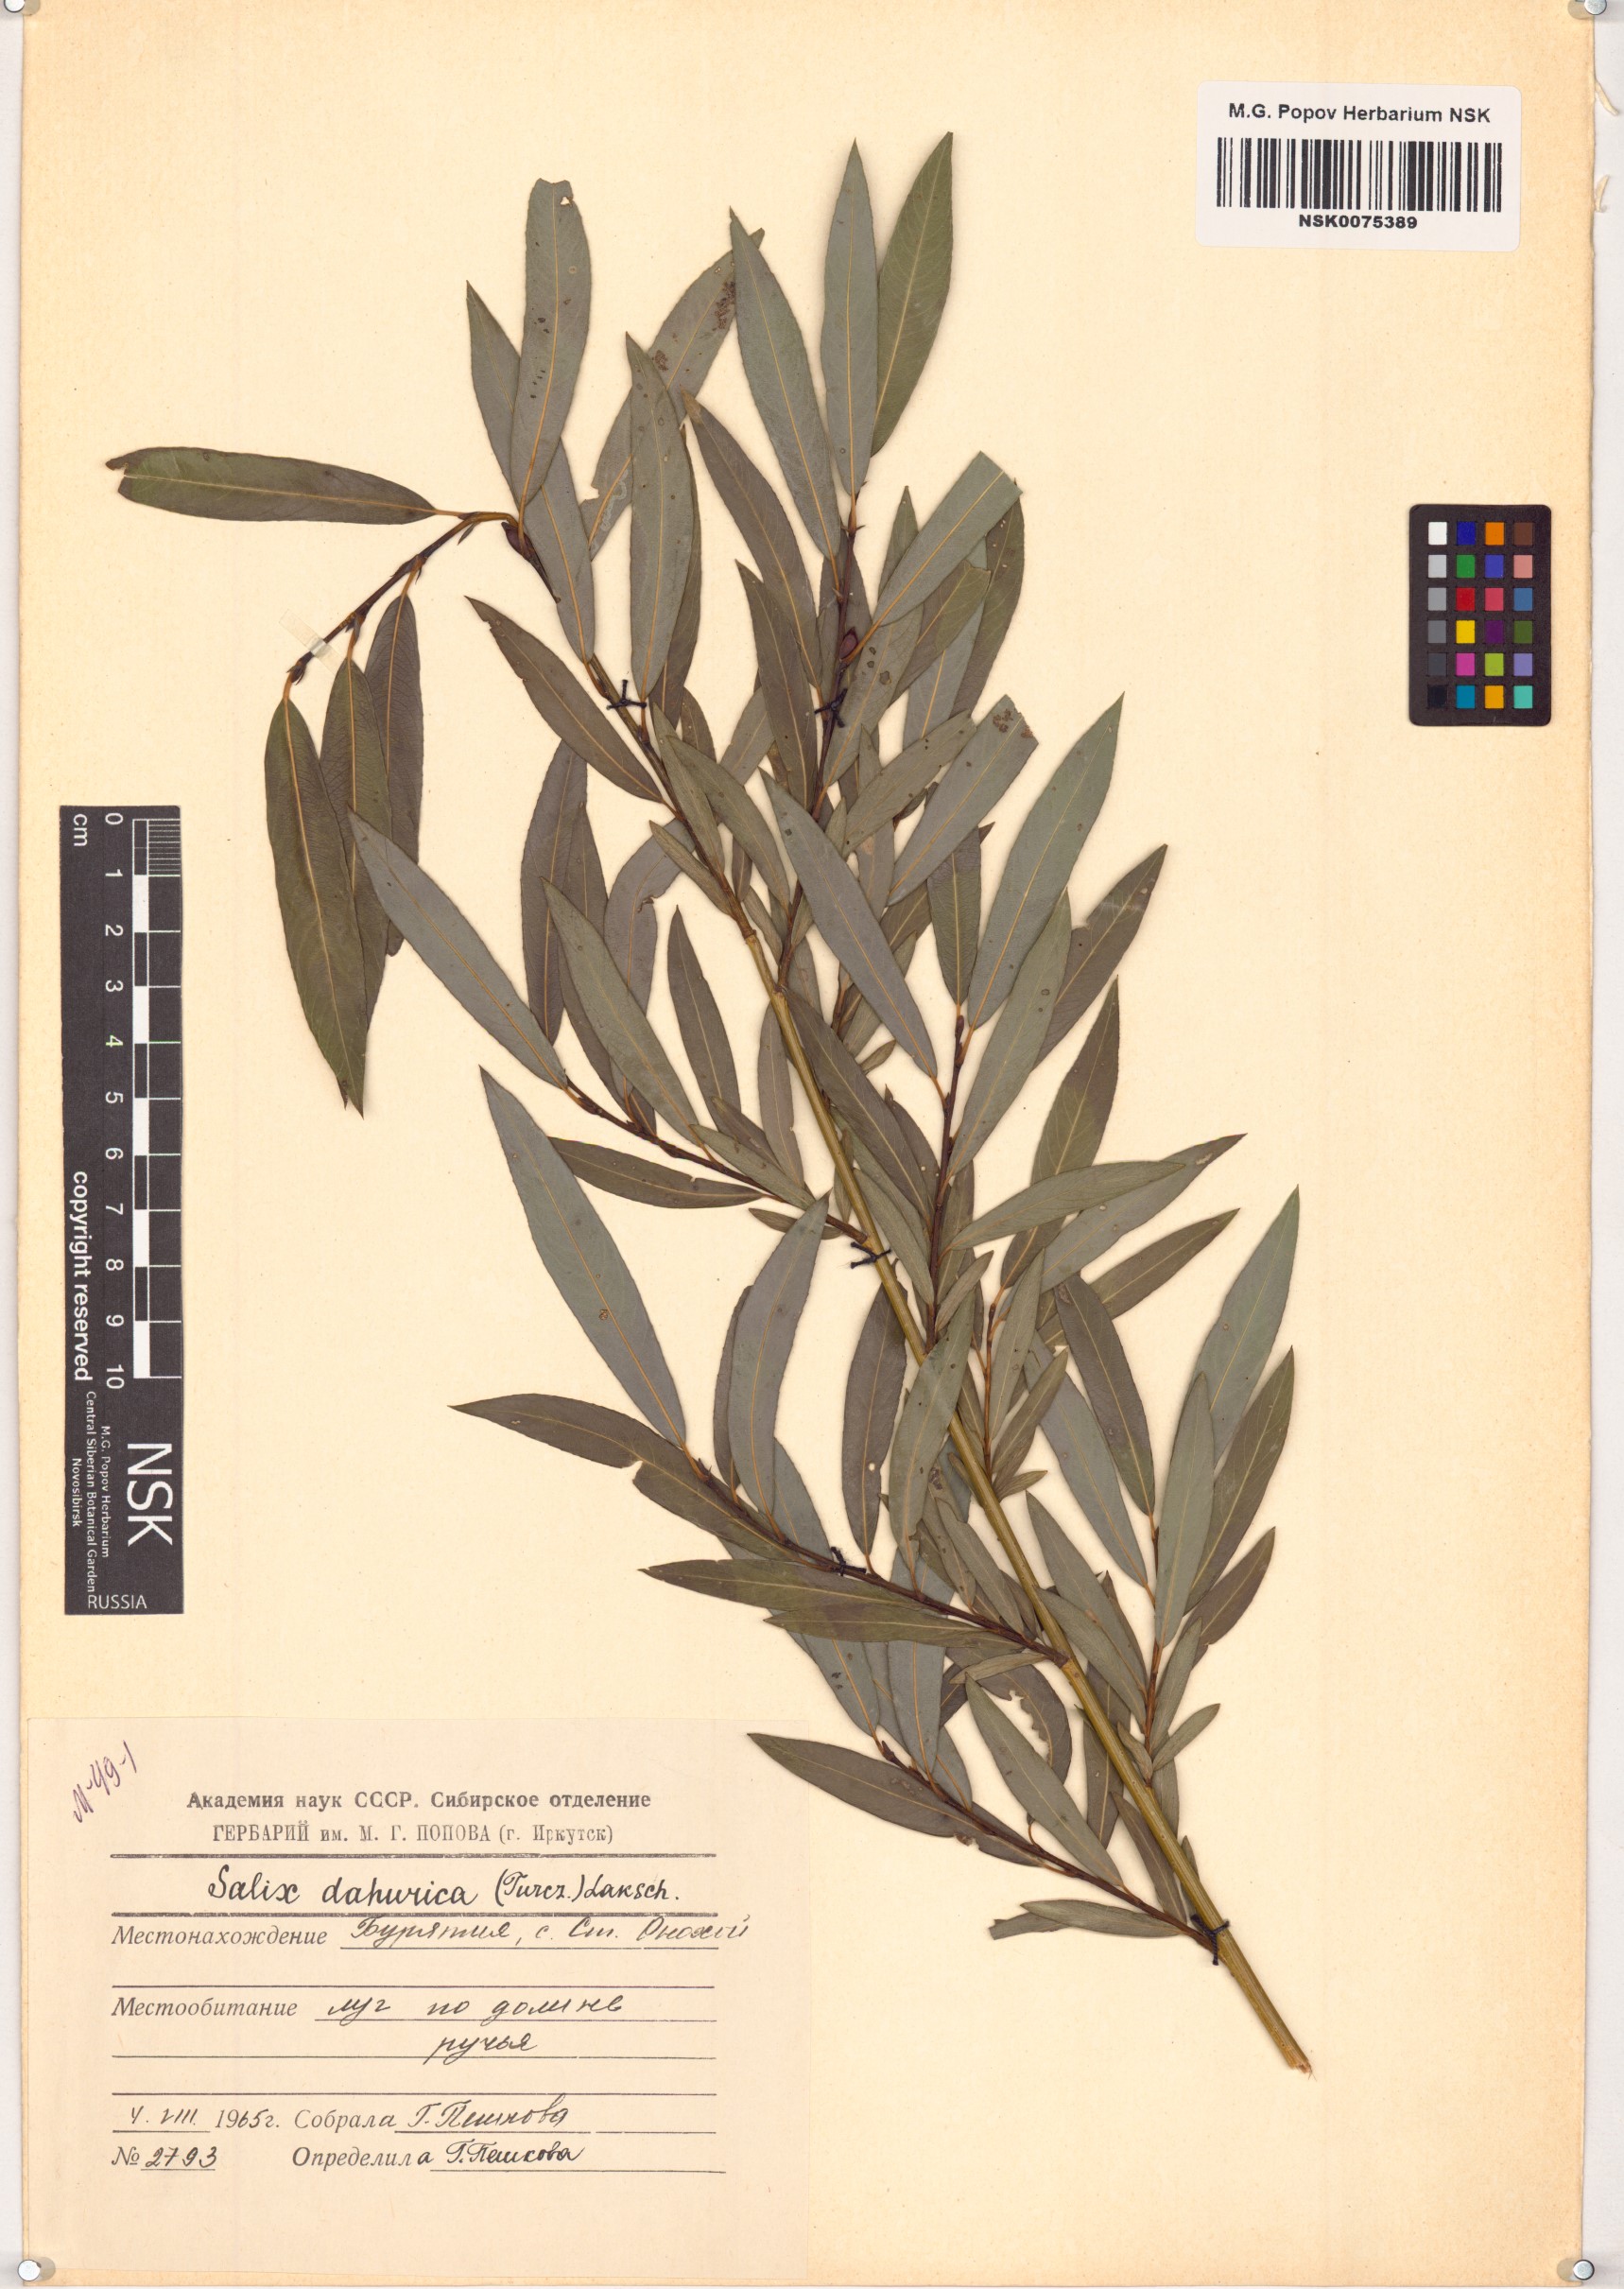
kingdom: Plantae
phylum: Tracheophyta
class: Magnoliopsida
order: Malpighiales
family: Salicaceae
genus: Salix
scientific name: Salix
